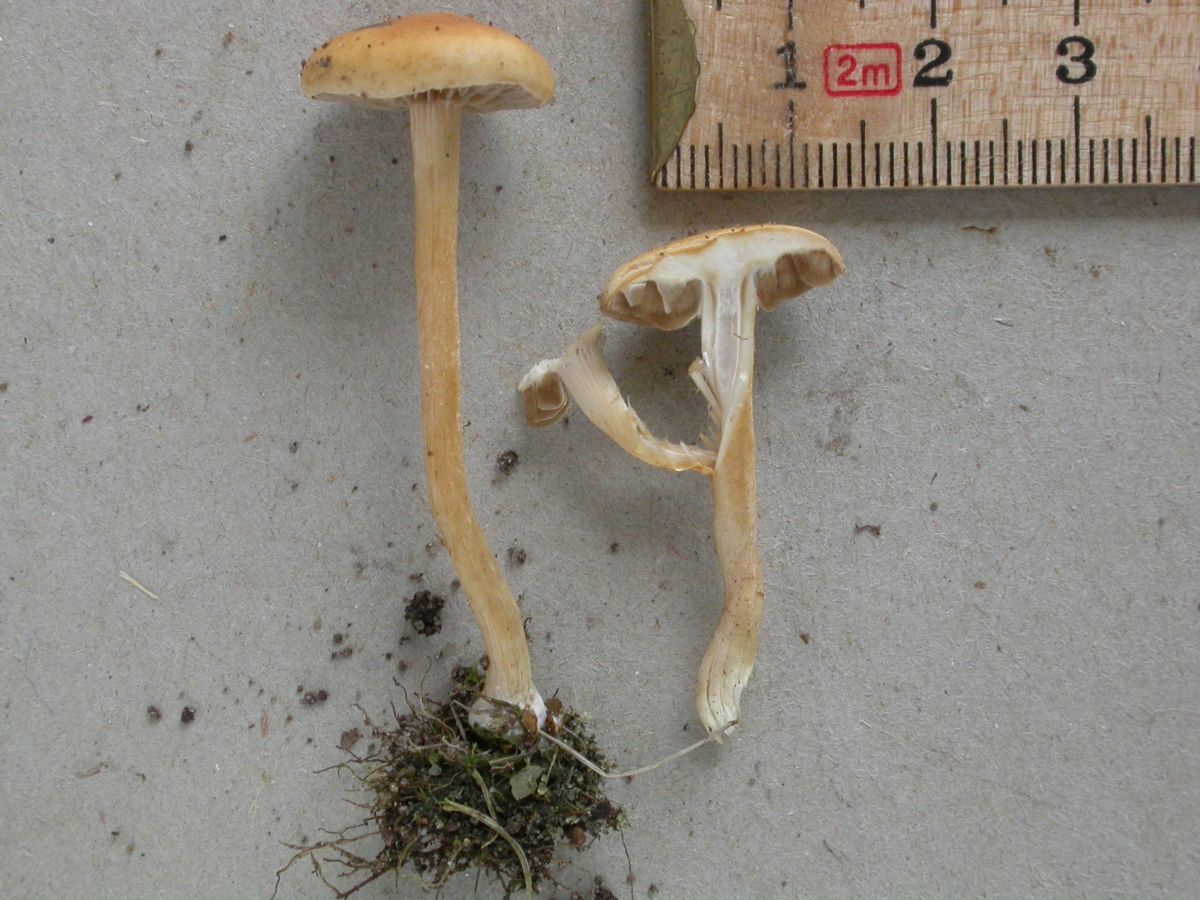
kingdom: Fungi
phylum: Basidiomycota
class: Agaricomycetes
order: Agaricales
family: Strophariaceae
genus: Agrocybe
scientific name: Agrocybe pediades
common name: almindelig agerhat
